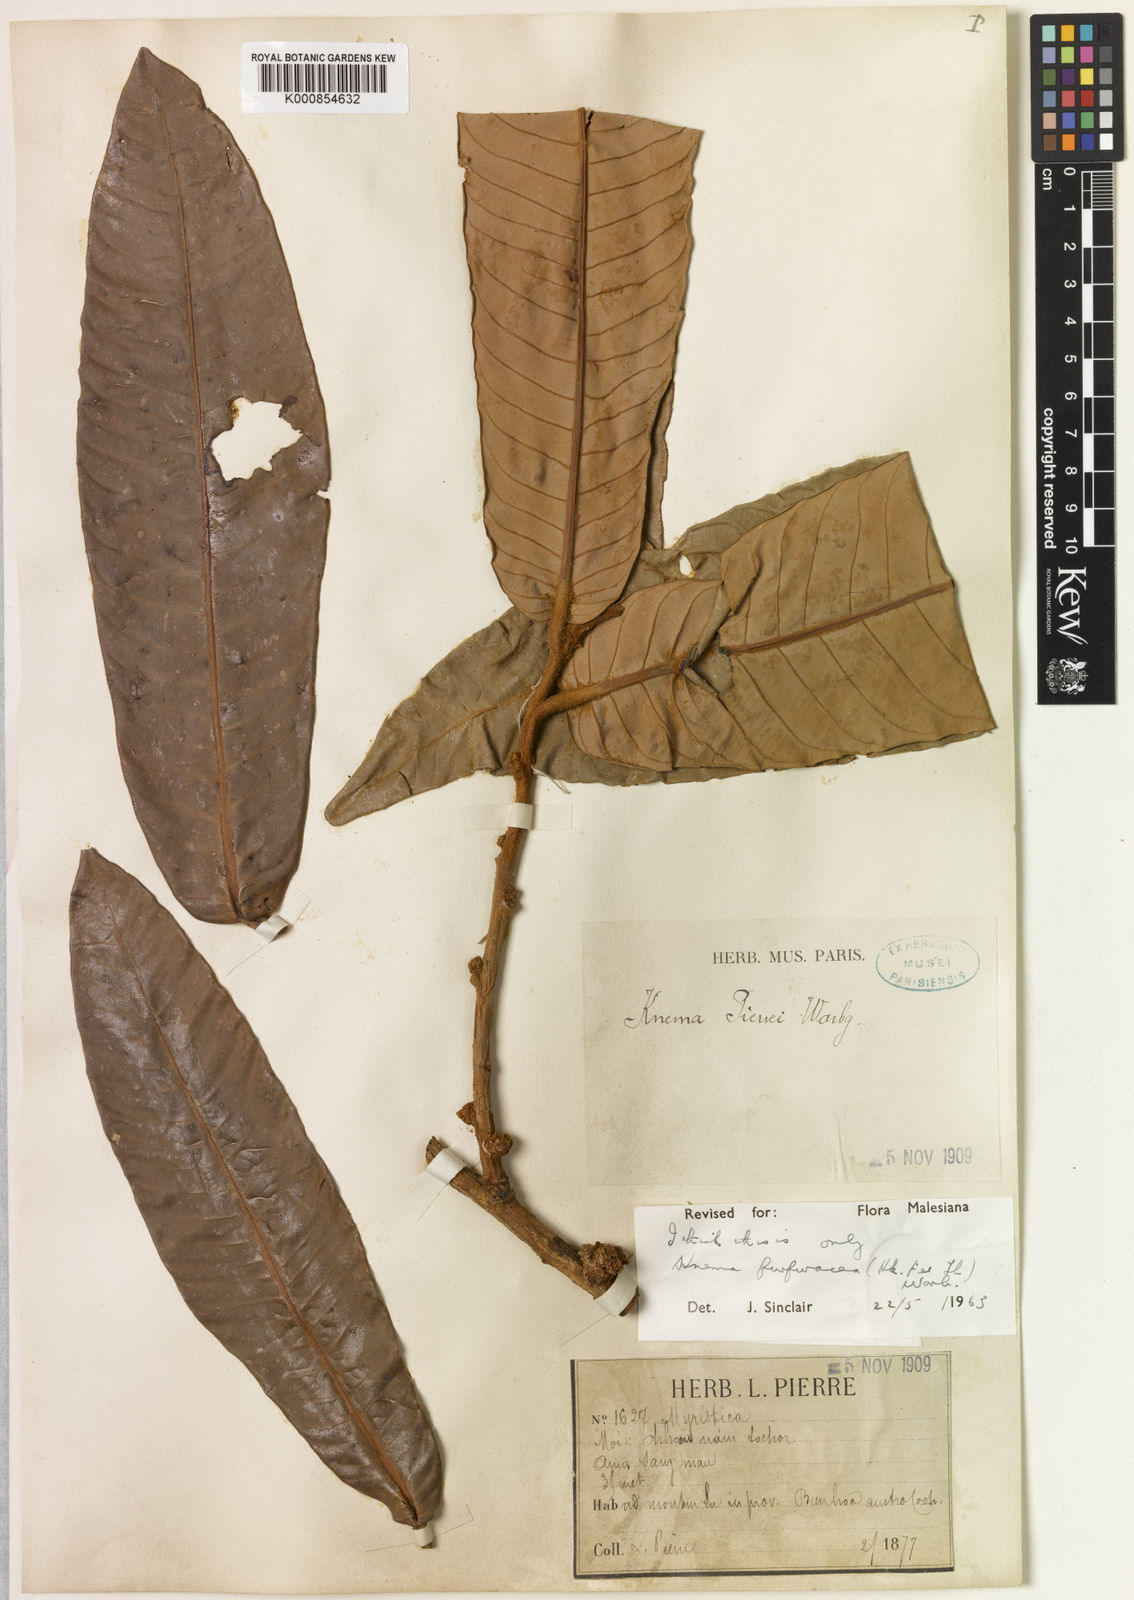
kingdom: Plantae
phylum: Tracheophyta
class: Magnoliopsida
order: Magnoliales
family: Myristicaceae
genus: Knema
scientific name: Knema furfuracea
